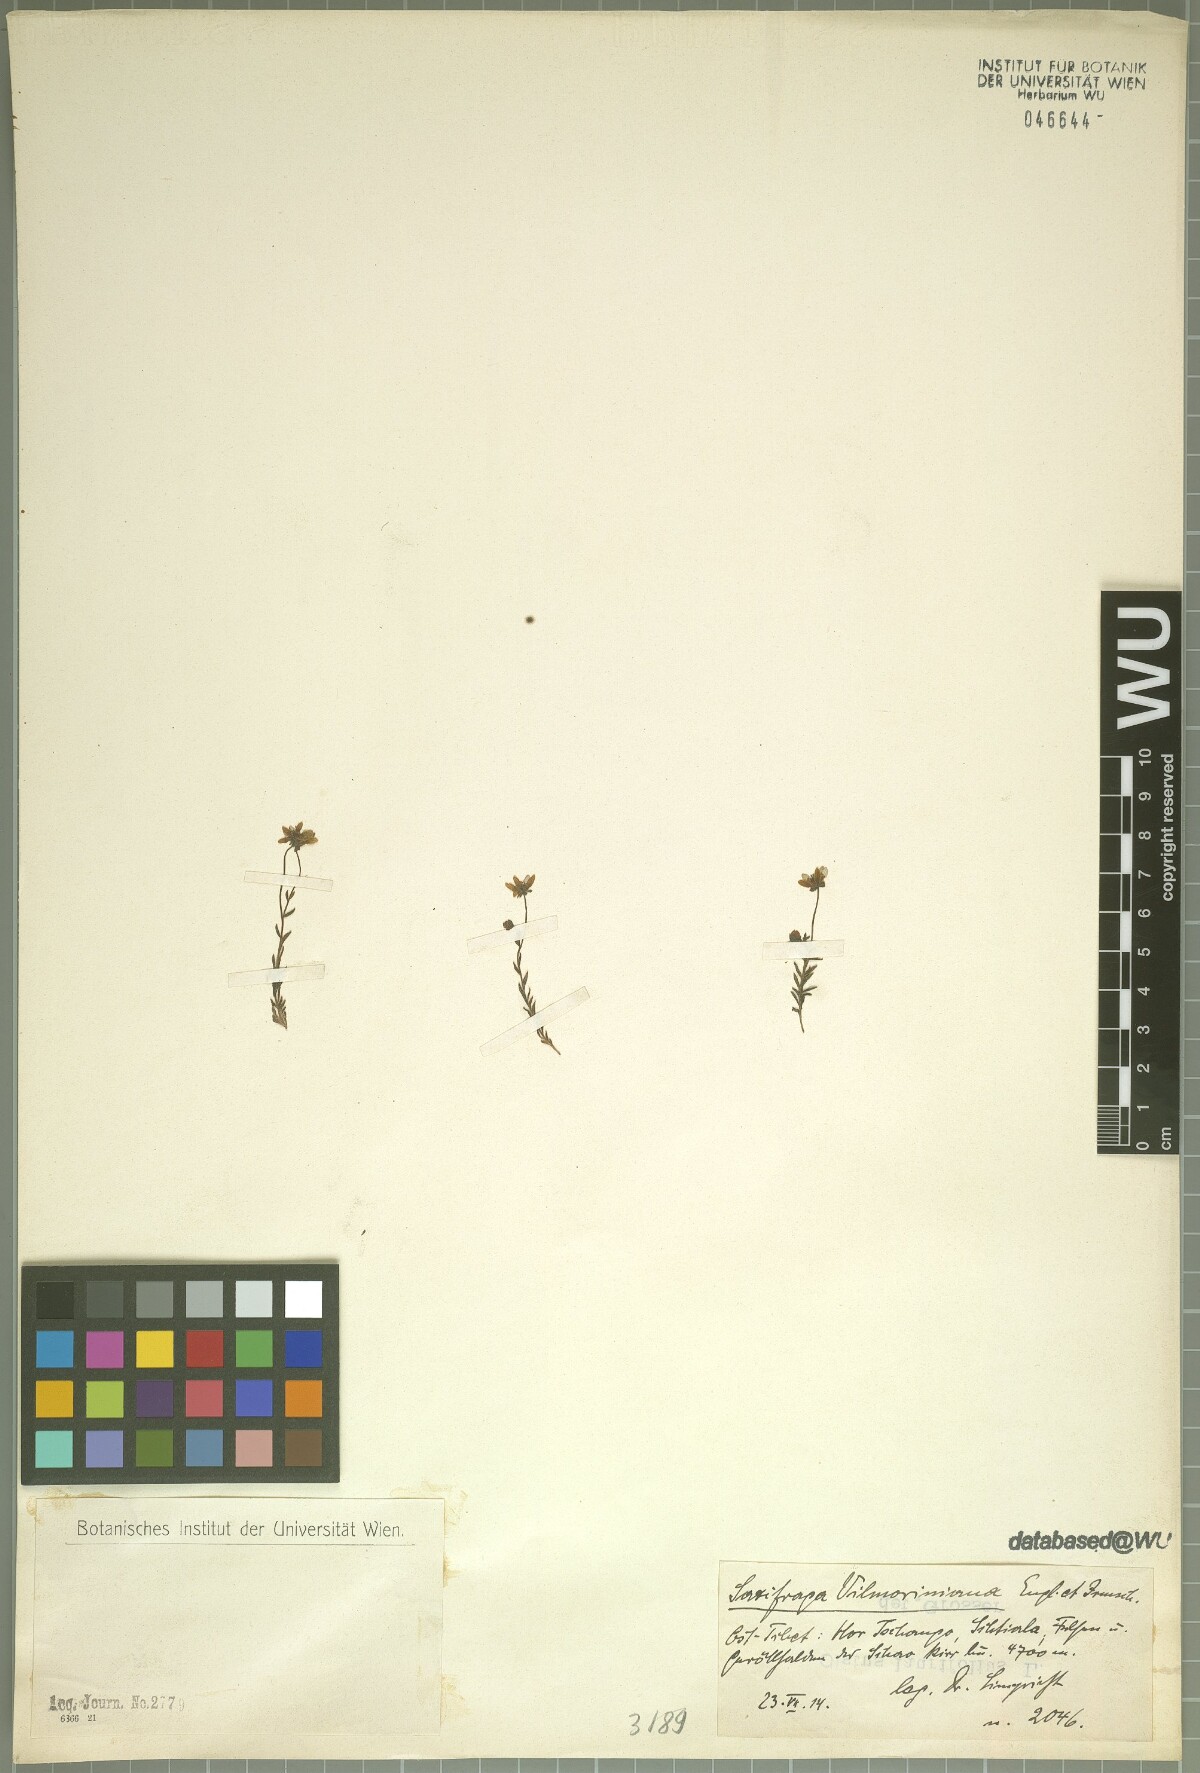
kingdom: Plantae
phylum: Tracheophyta
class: Magnoliopsida
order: Saxifragales
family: Saxifragaceae
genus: Saxifraga
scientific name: Saxifraga unguiculata
